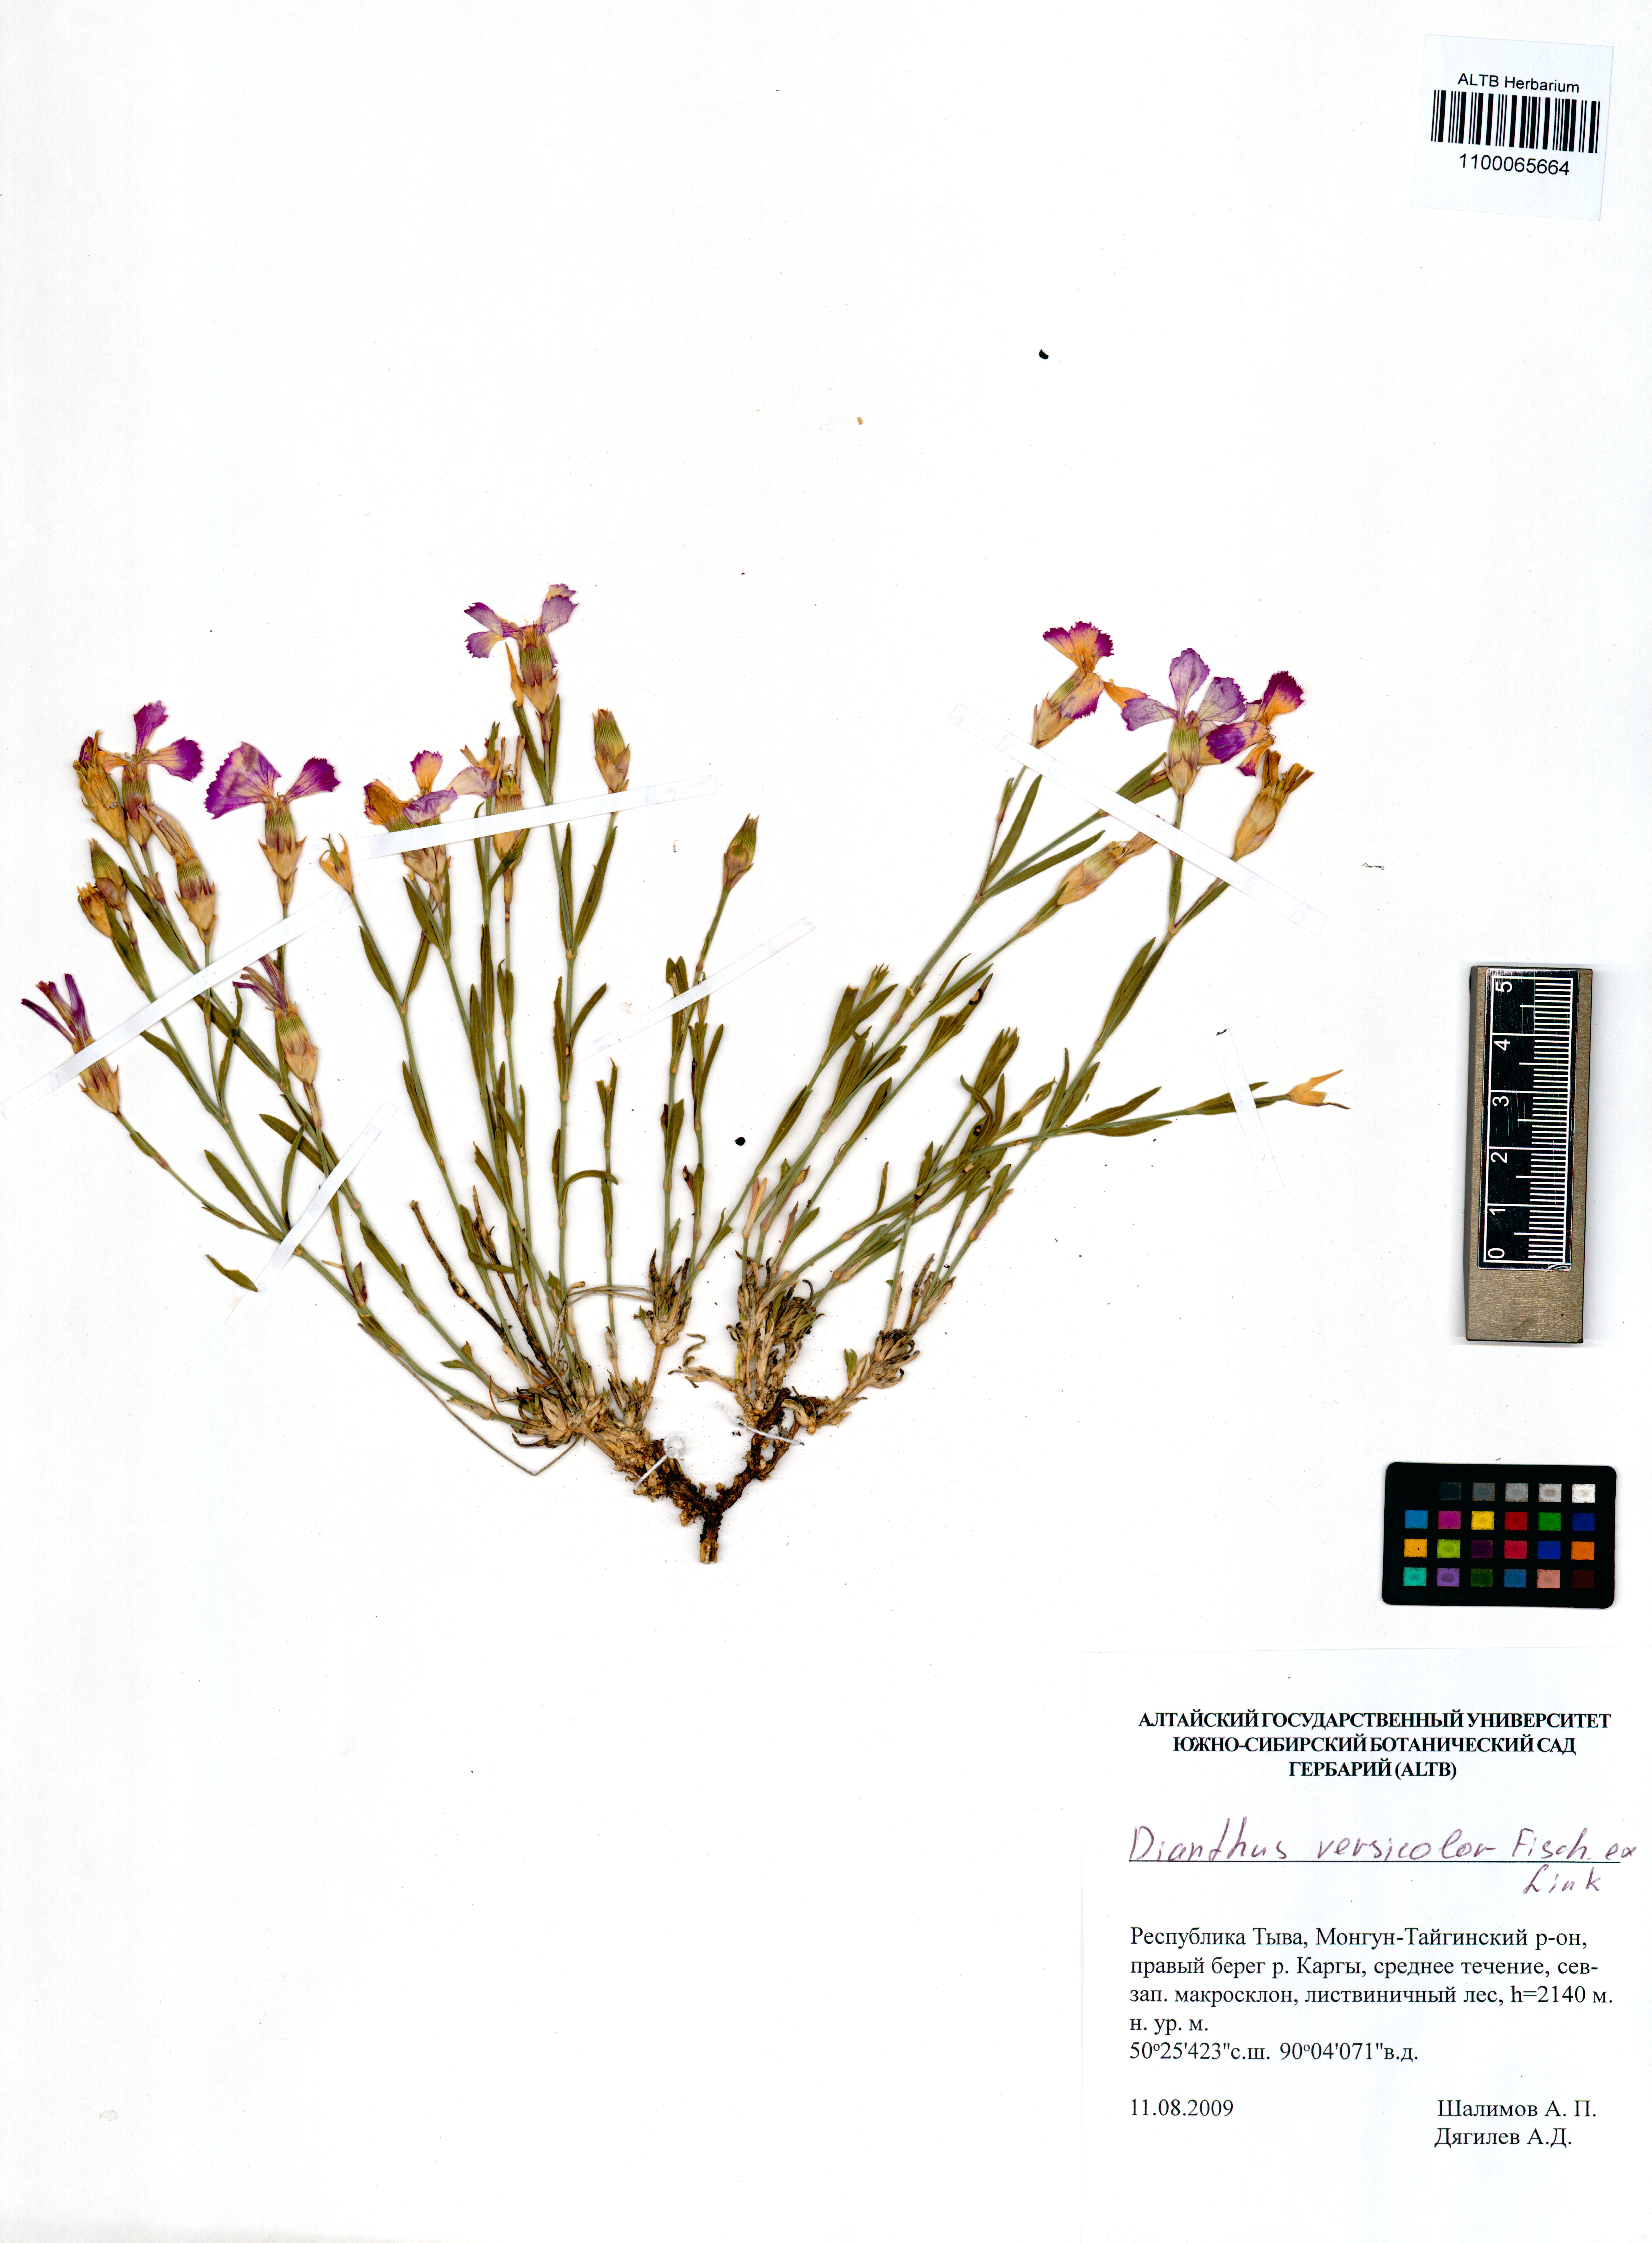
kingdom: Plantae
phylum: Tracheophyta
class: Magnoliopsida
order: Caryophyllales
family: Caryophyllaceae
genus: Dianthus
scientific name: Dianthus chinensis
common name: Rainbow pink
